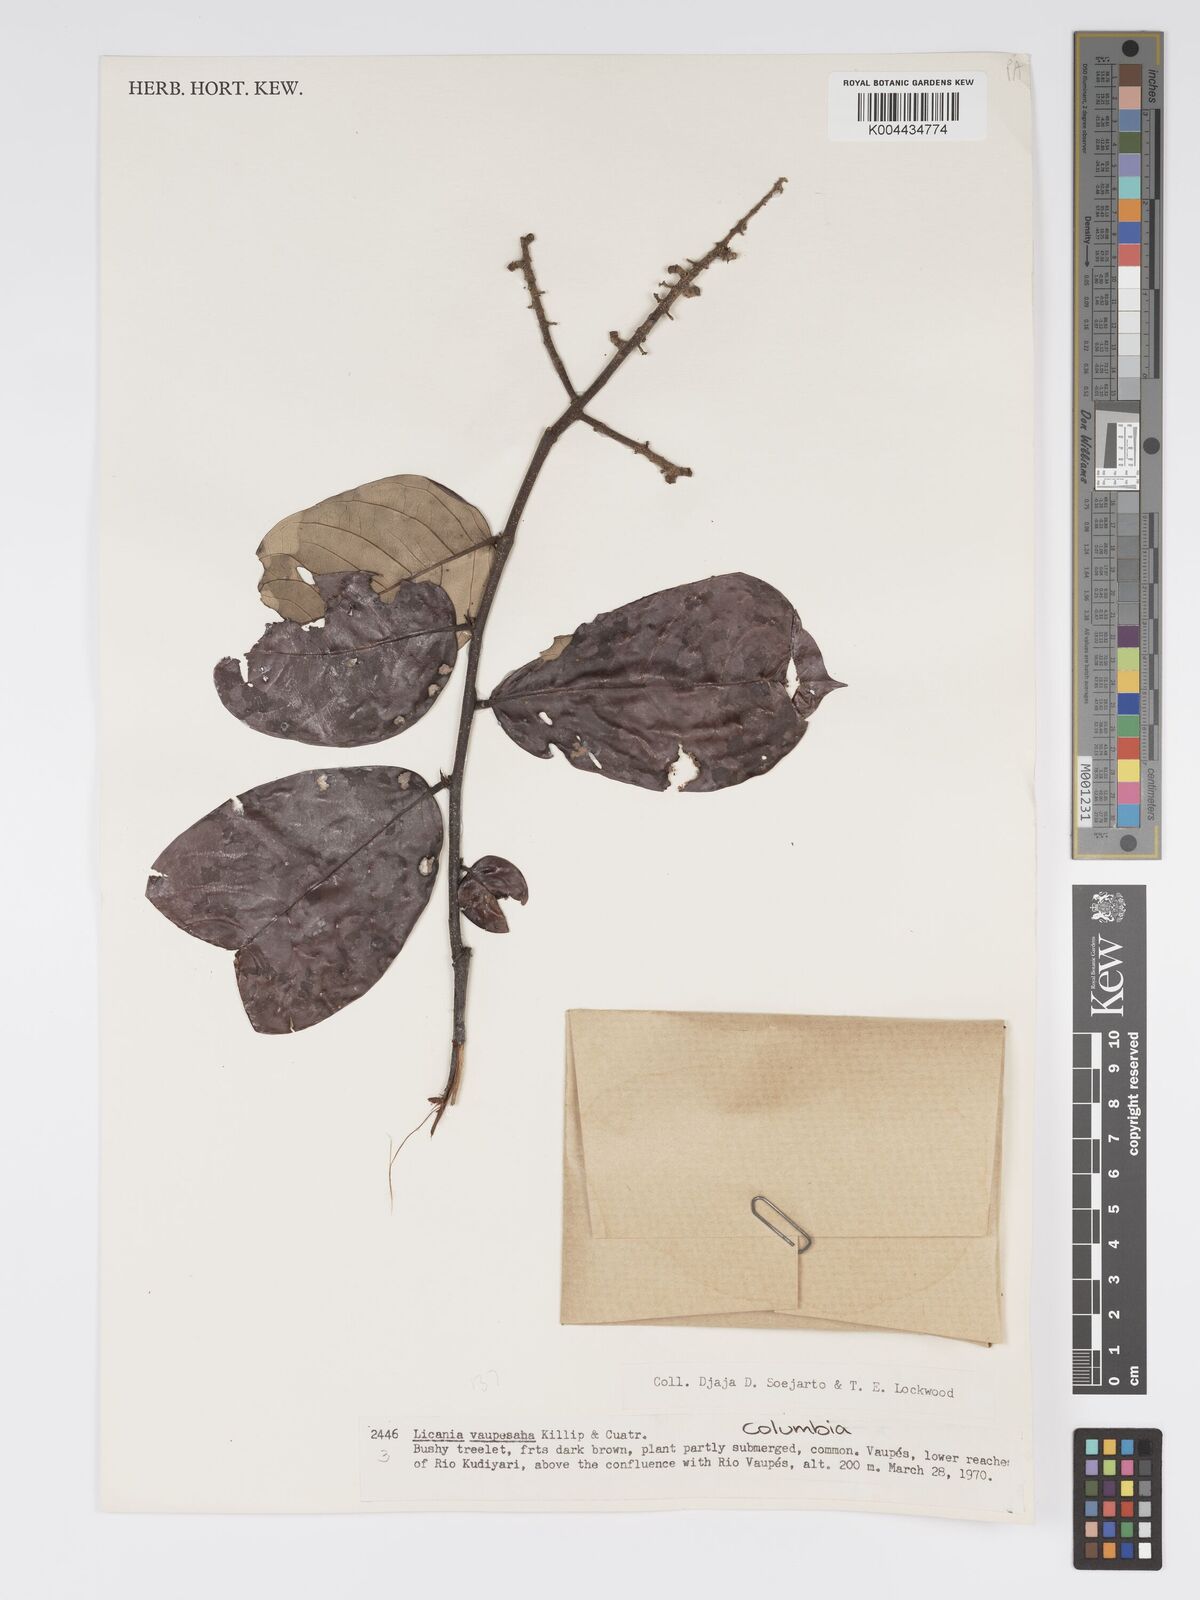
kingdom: Plantae
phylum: Tracheophyta
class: Magnoliopsida
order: Malpighiales
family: Chrysobalanaceae
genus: Licania
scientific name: Licania
